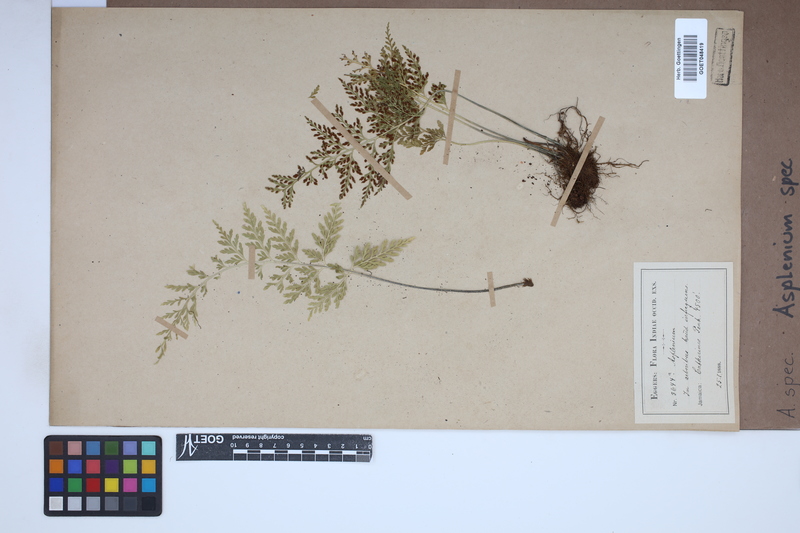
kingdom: Plantae
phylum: Tracheophyta
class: Polypodiopsida
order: Polypodiales
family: Aspleniaceae
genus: Asplenium
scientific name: Asplenium
